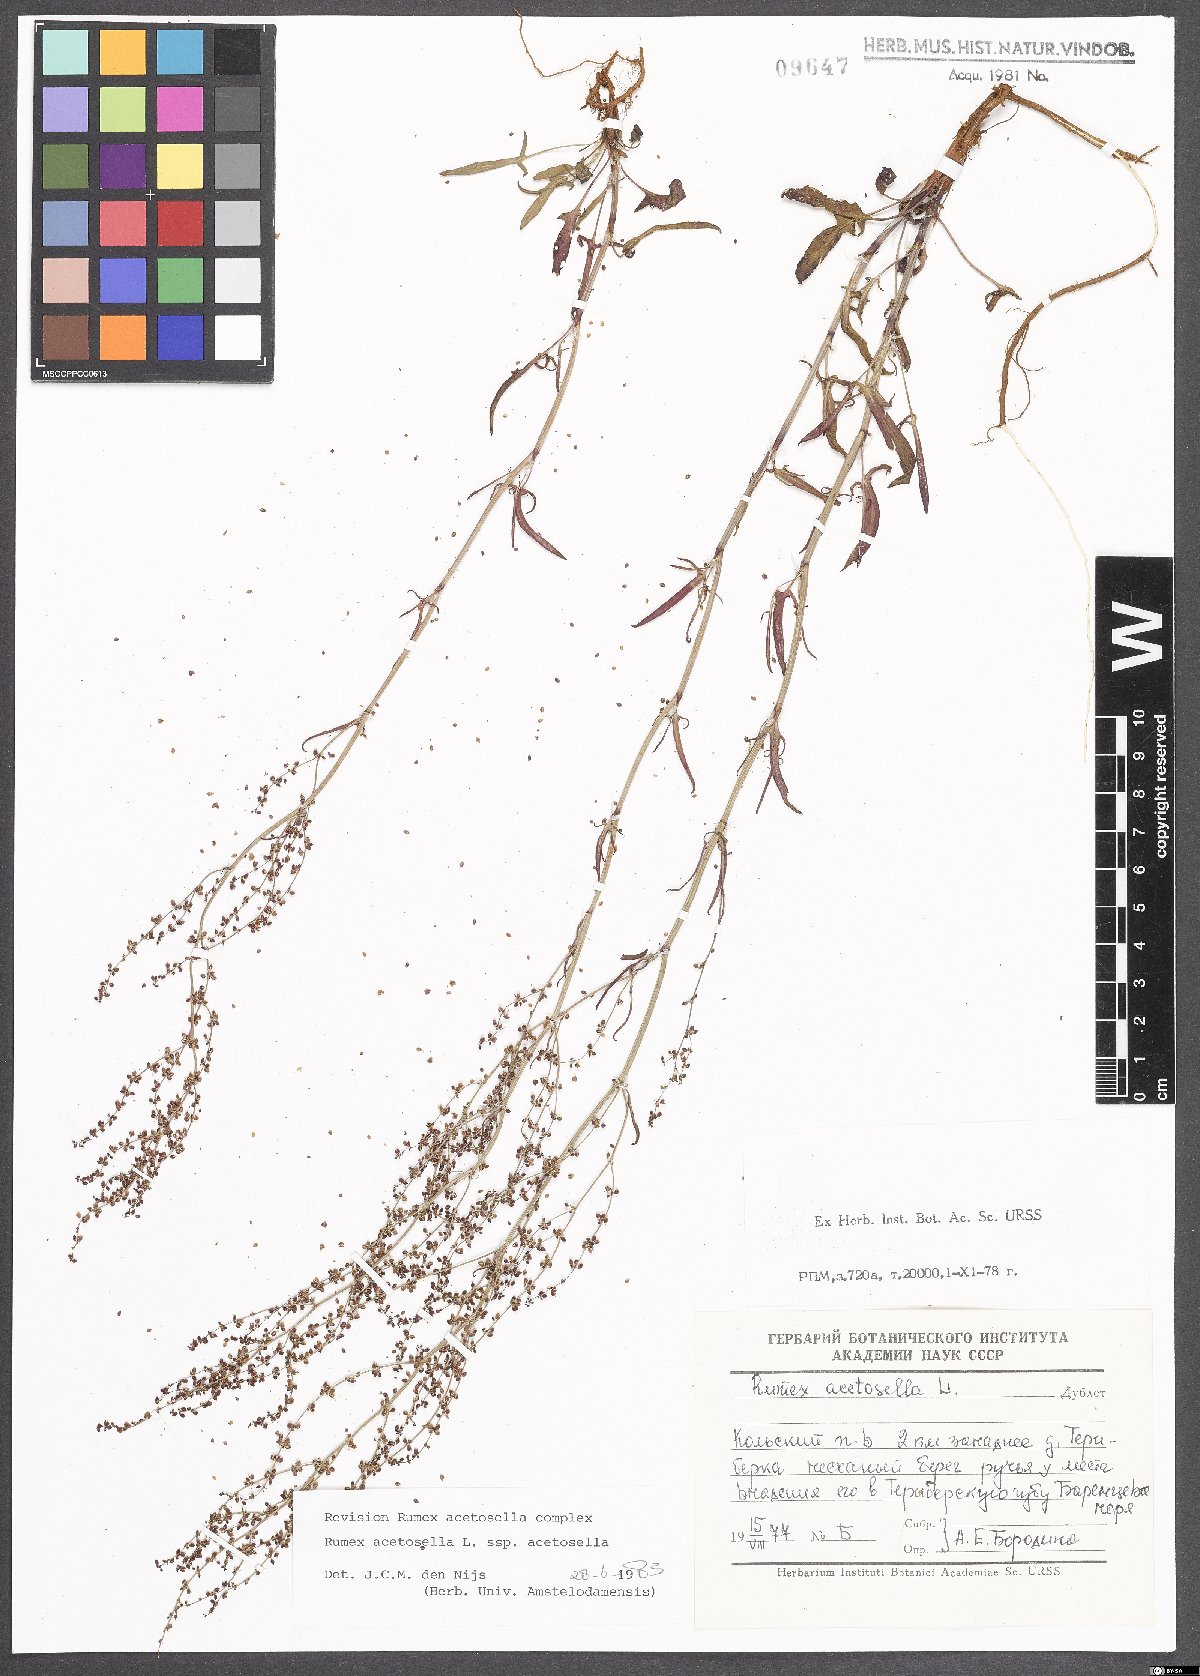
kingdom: Plantae
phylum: Tracheophyta
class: Magnoliopsida
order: Caryophyllales
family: Polygonaceae
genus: Rumex
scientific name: Rumex acetosella
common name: Common sheep sorrel
